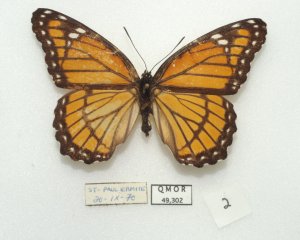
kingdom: Animalia
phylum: Arthropoda
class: Insecta
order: Lepidoptera
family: Nymphalidae
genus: Limenitis
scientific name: Limenitis archippus
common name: Viceroy
